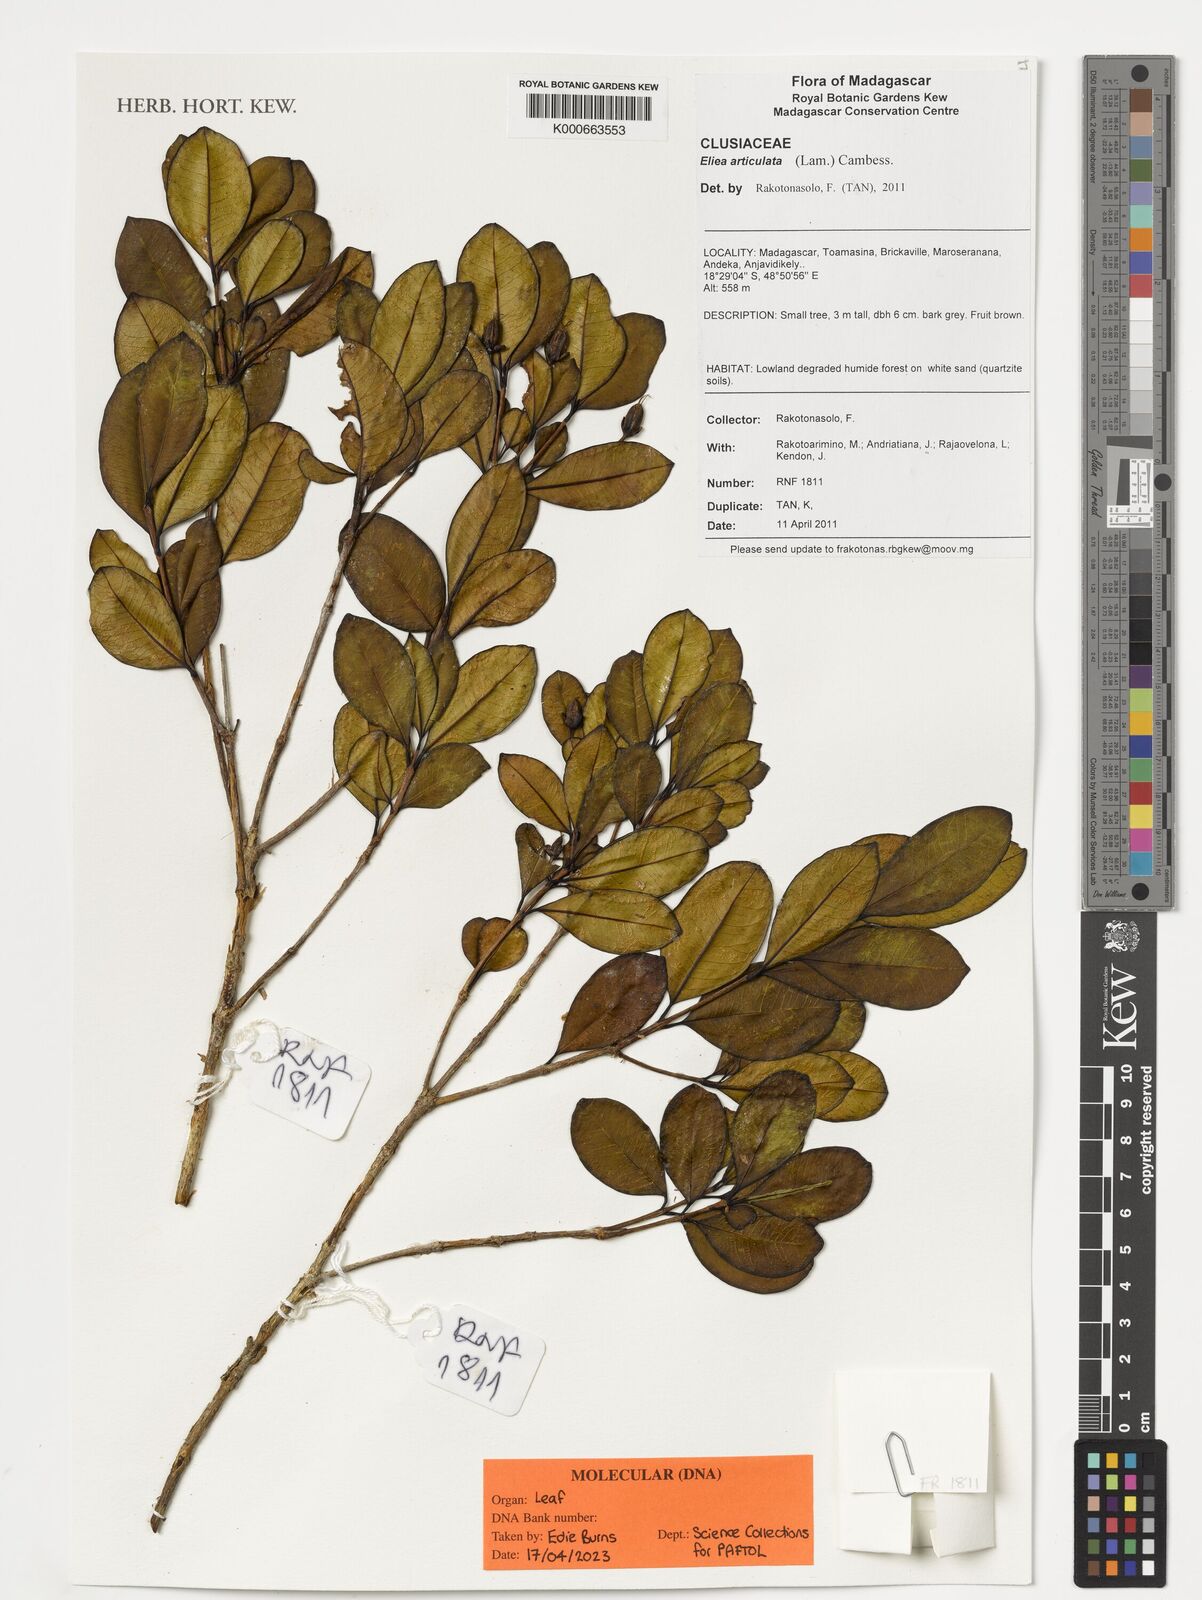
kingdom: Plantae
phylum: Tracheophyta
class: Magnoliopsida
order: Malpighiales
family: Hypericaceae
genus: Eliea
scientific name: Eliea articulata
